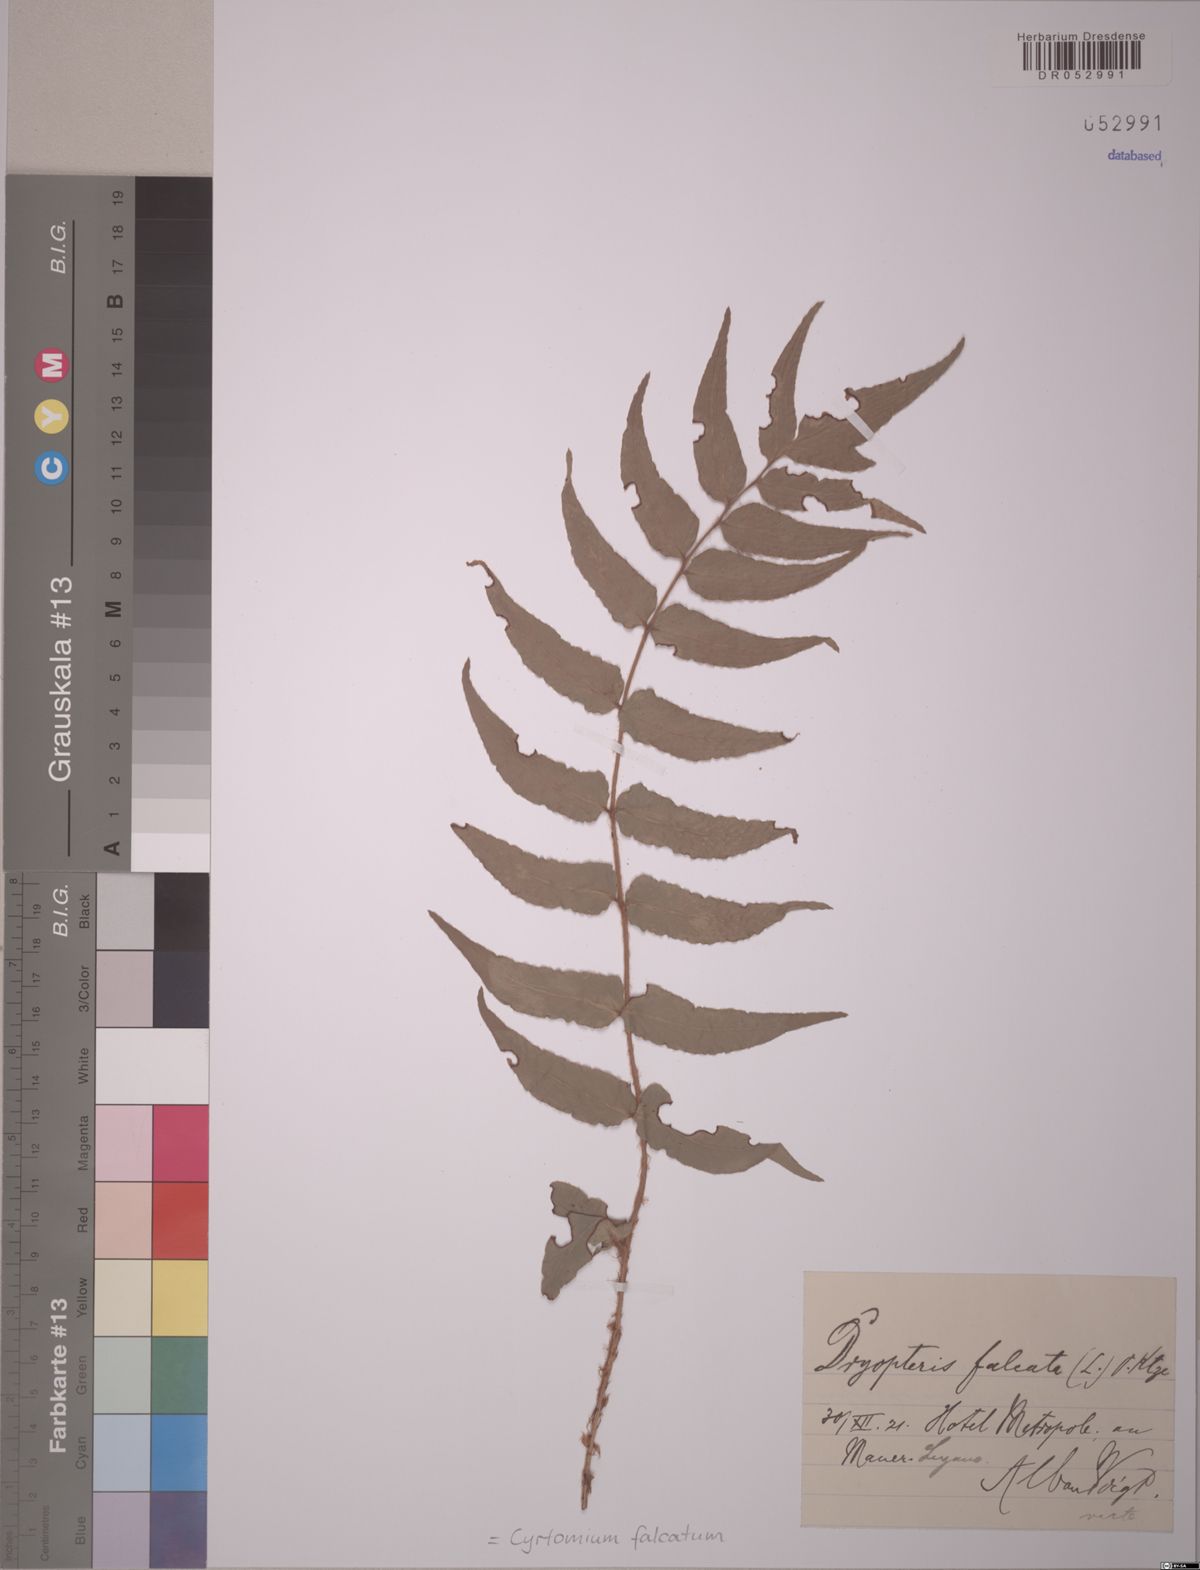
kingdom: Plantae
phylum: Tracheophyta
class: Polypodiopsida
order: Polypodiales
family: Dryopteridaceae
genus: Cyrtomium
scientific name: Cyrtomium falcatum
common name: House holly-fern
